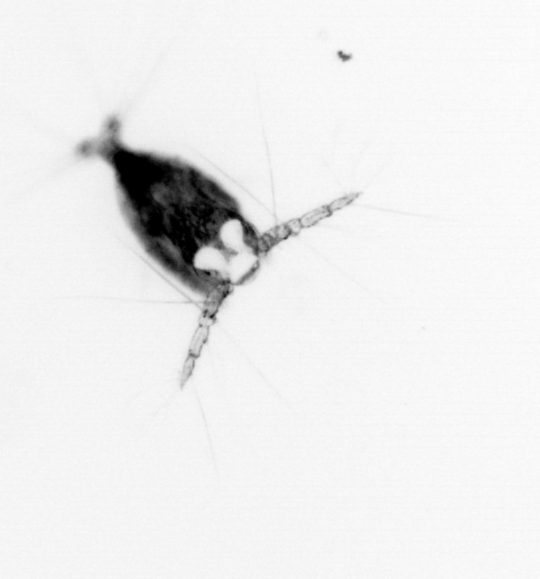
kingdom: Animalia
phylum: Arthropoda
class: Copepoda
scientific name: Copepoda
